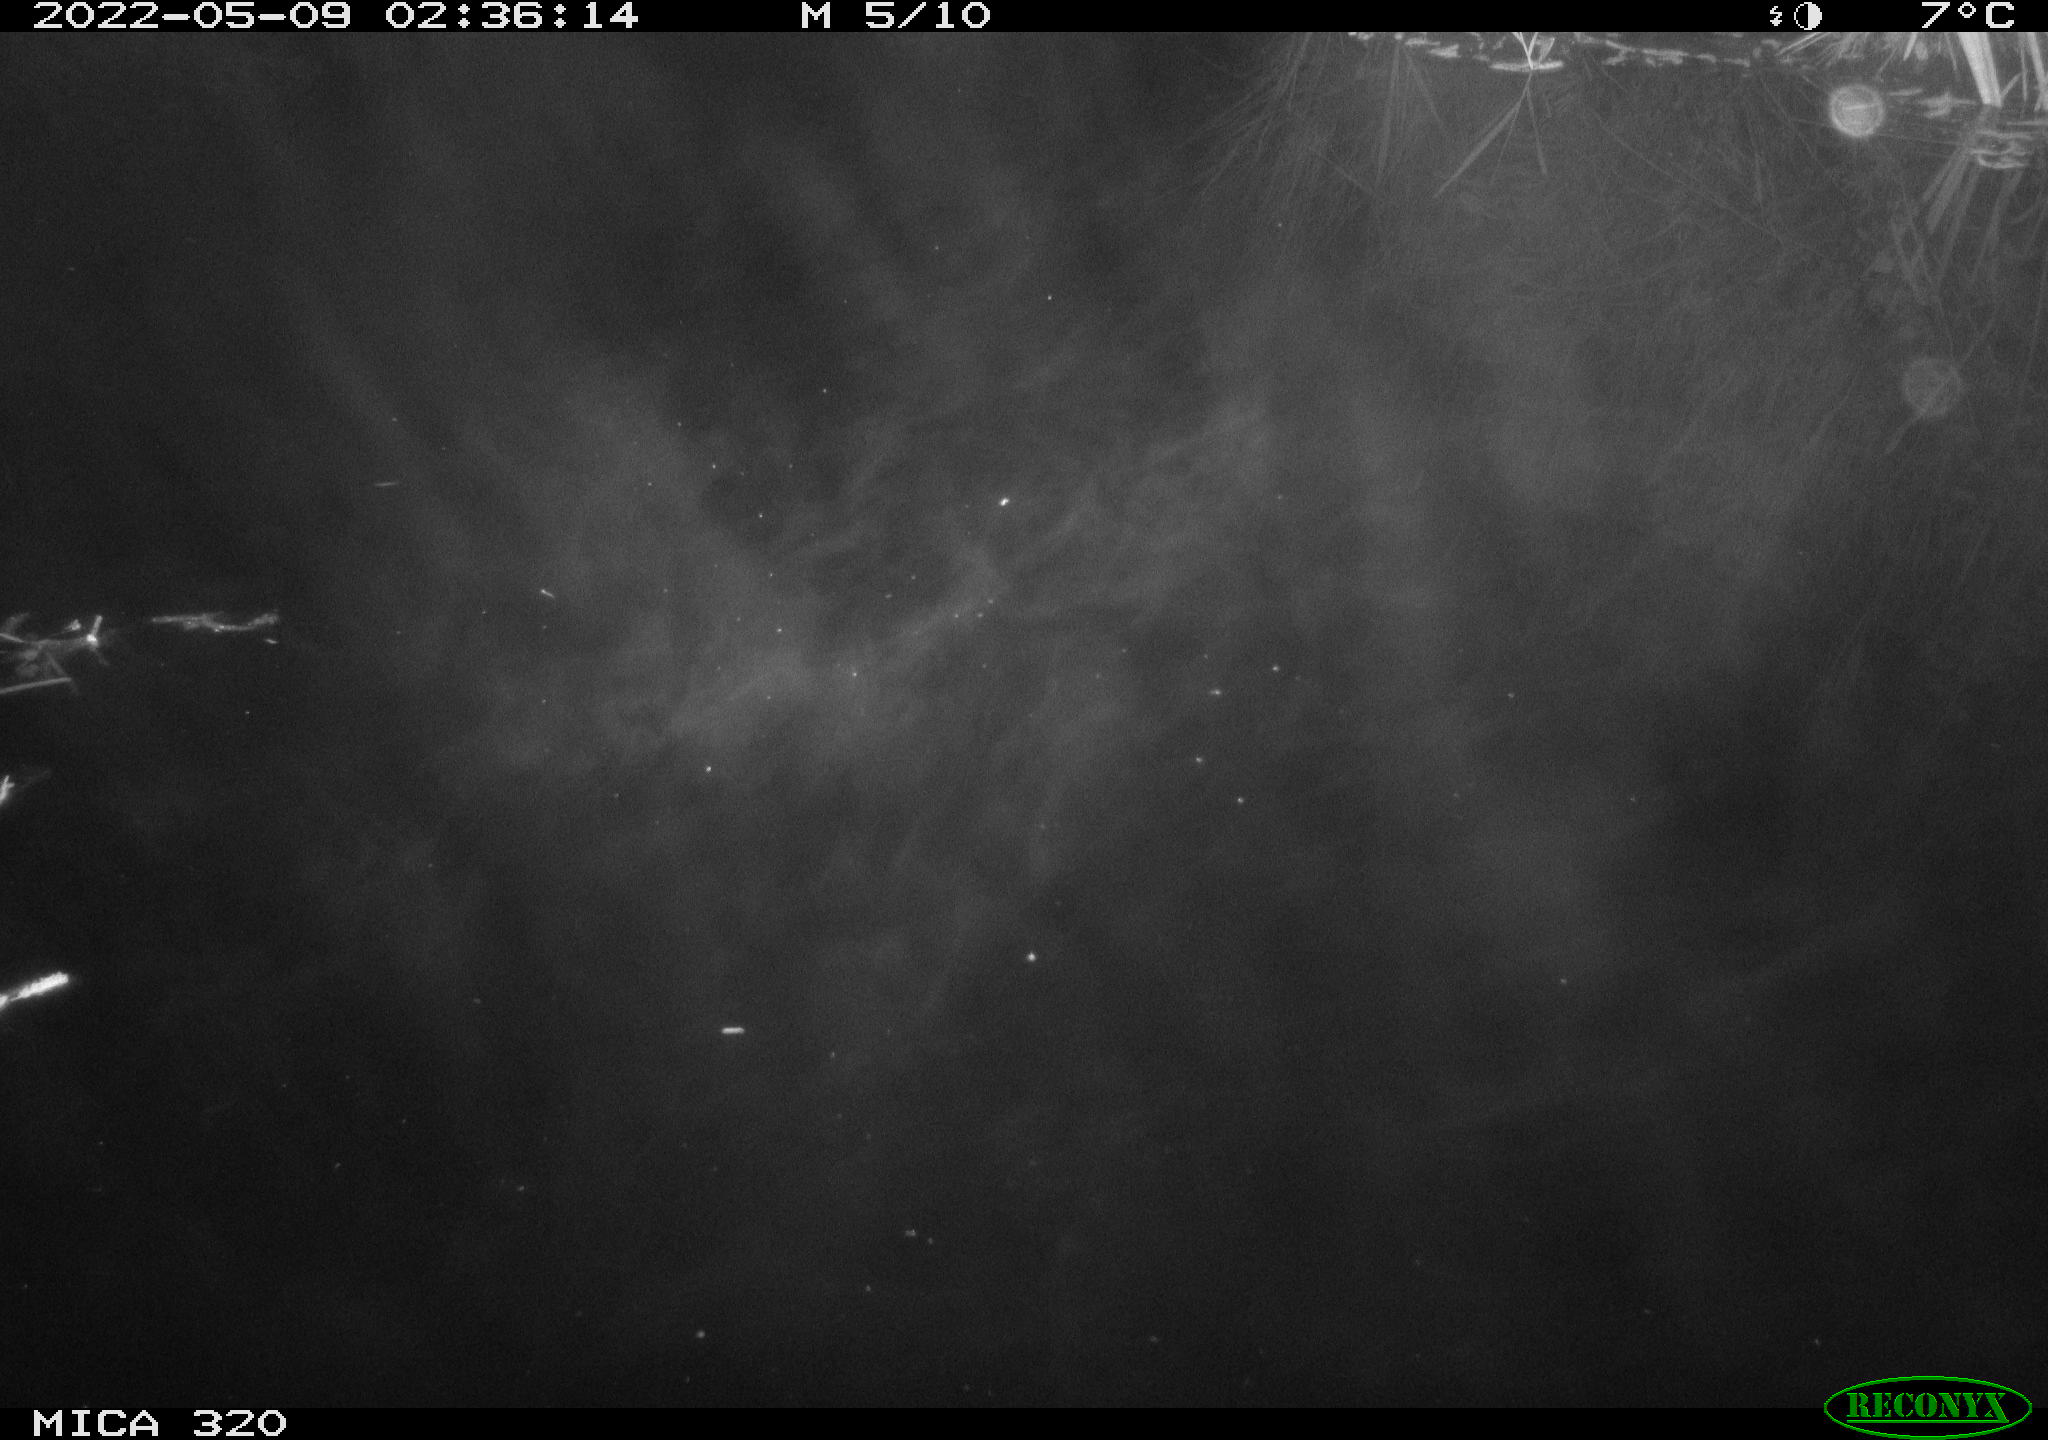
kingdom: Animalia
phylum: Chordata
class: Mammalia
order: Rodentia
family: Cricetidae
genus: Ondatra
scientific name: Ondatra zibethicus
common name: Muskrat
